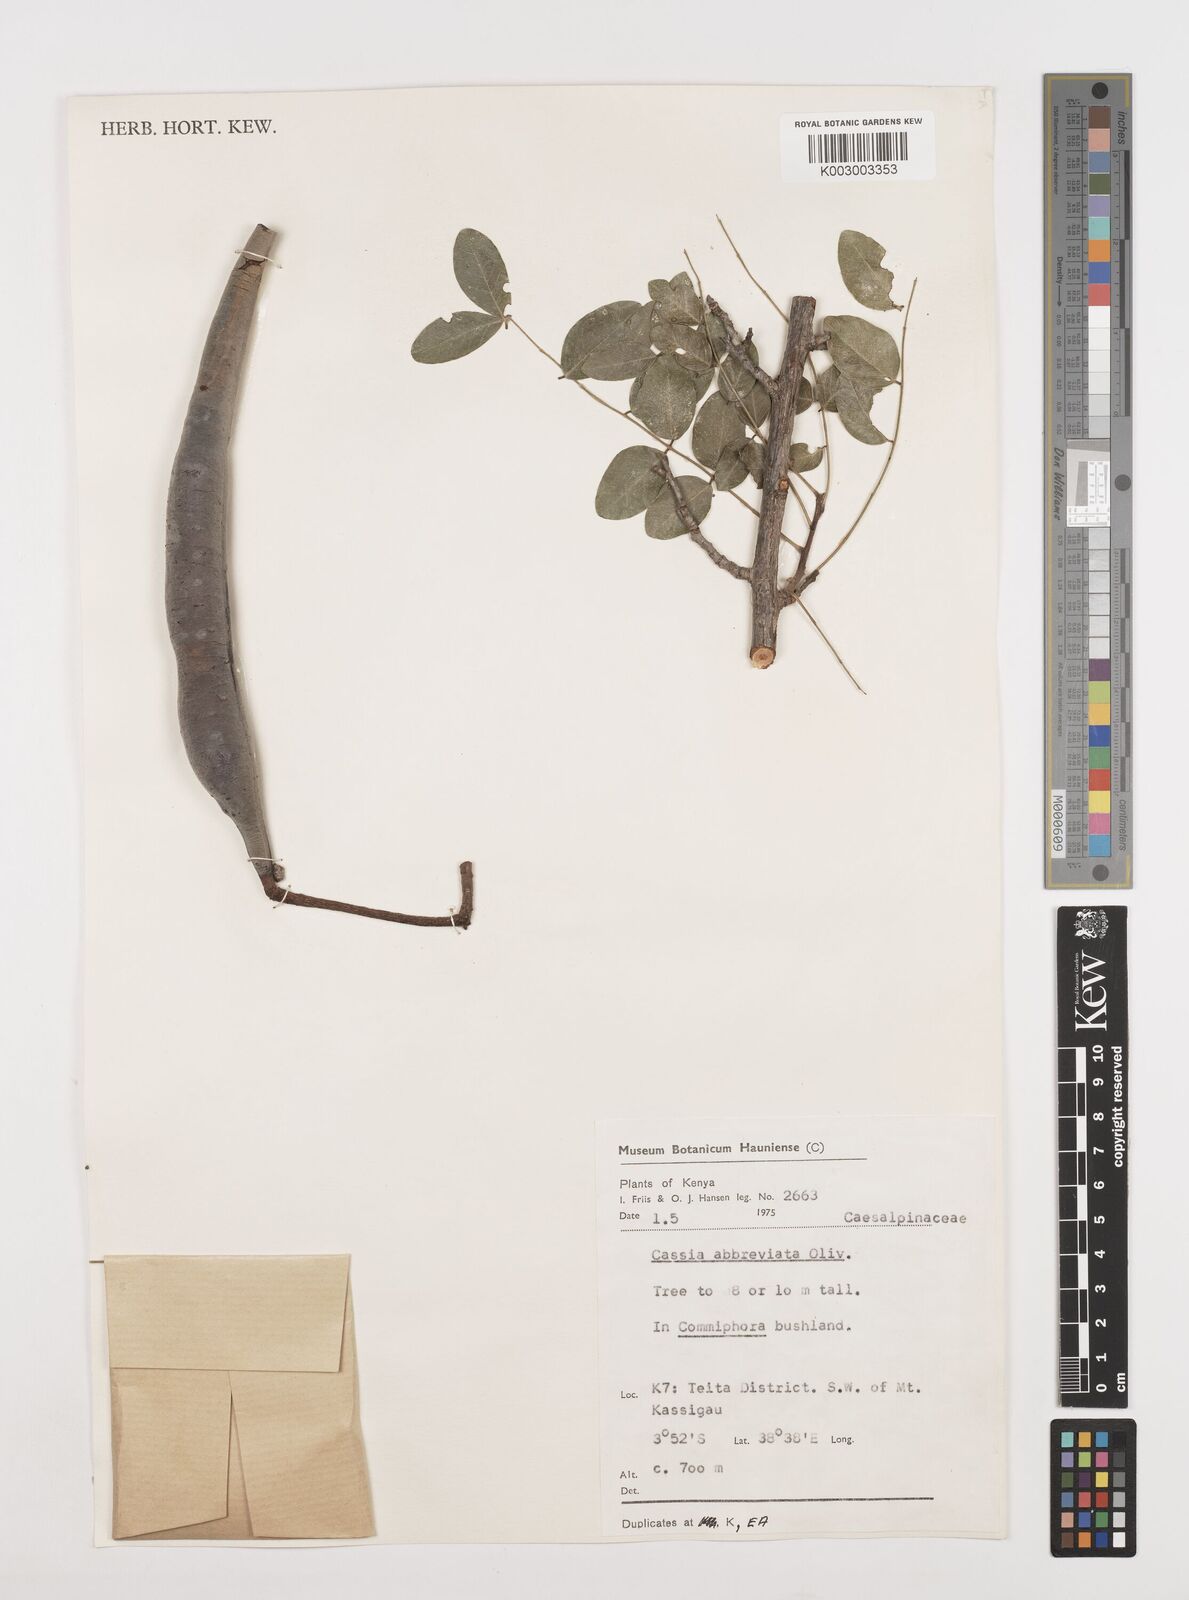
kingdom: Plantae
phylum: Tracheophyta
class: Magnoliopsida
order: Fabales
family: Fabaceae
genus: Cassia
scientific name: Cassia abbreviata
